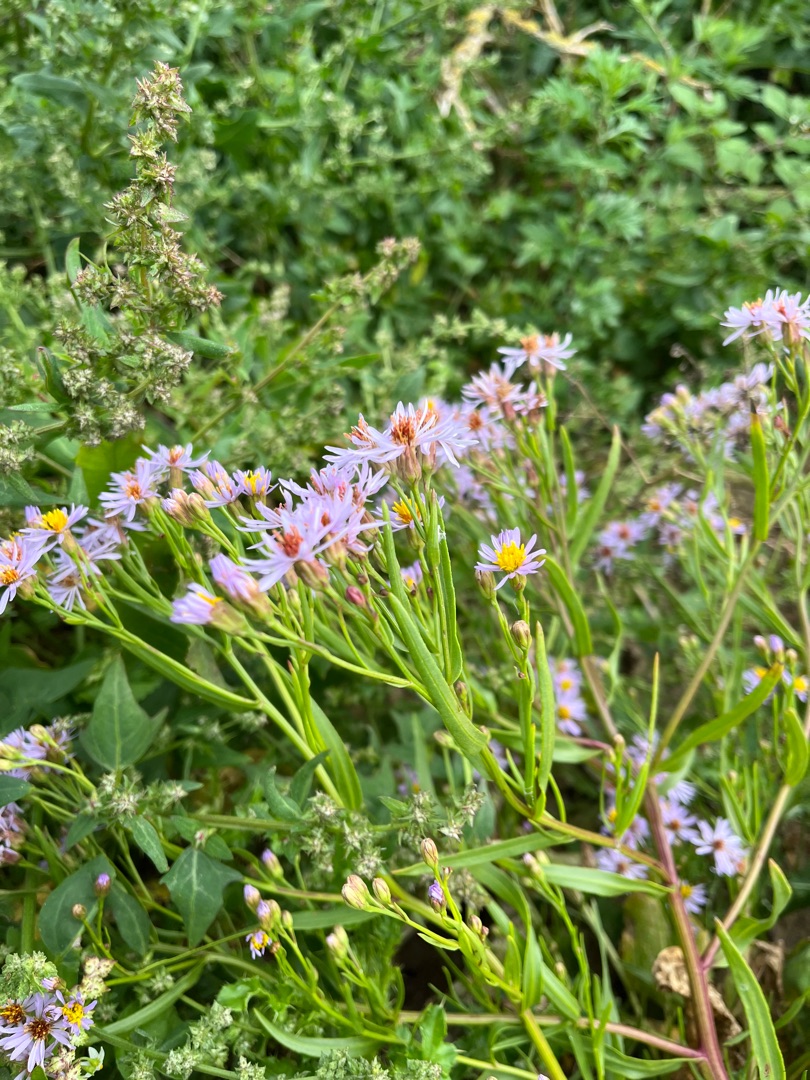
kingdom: Plantae
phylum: Tracheophyta
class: Magnoliopsida
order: Asterales
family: Asteraceae
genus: Tripolium
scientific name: Tripolium pannonicum
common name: Strandasters
